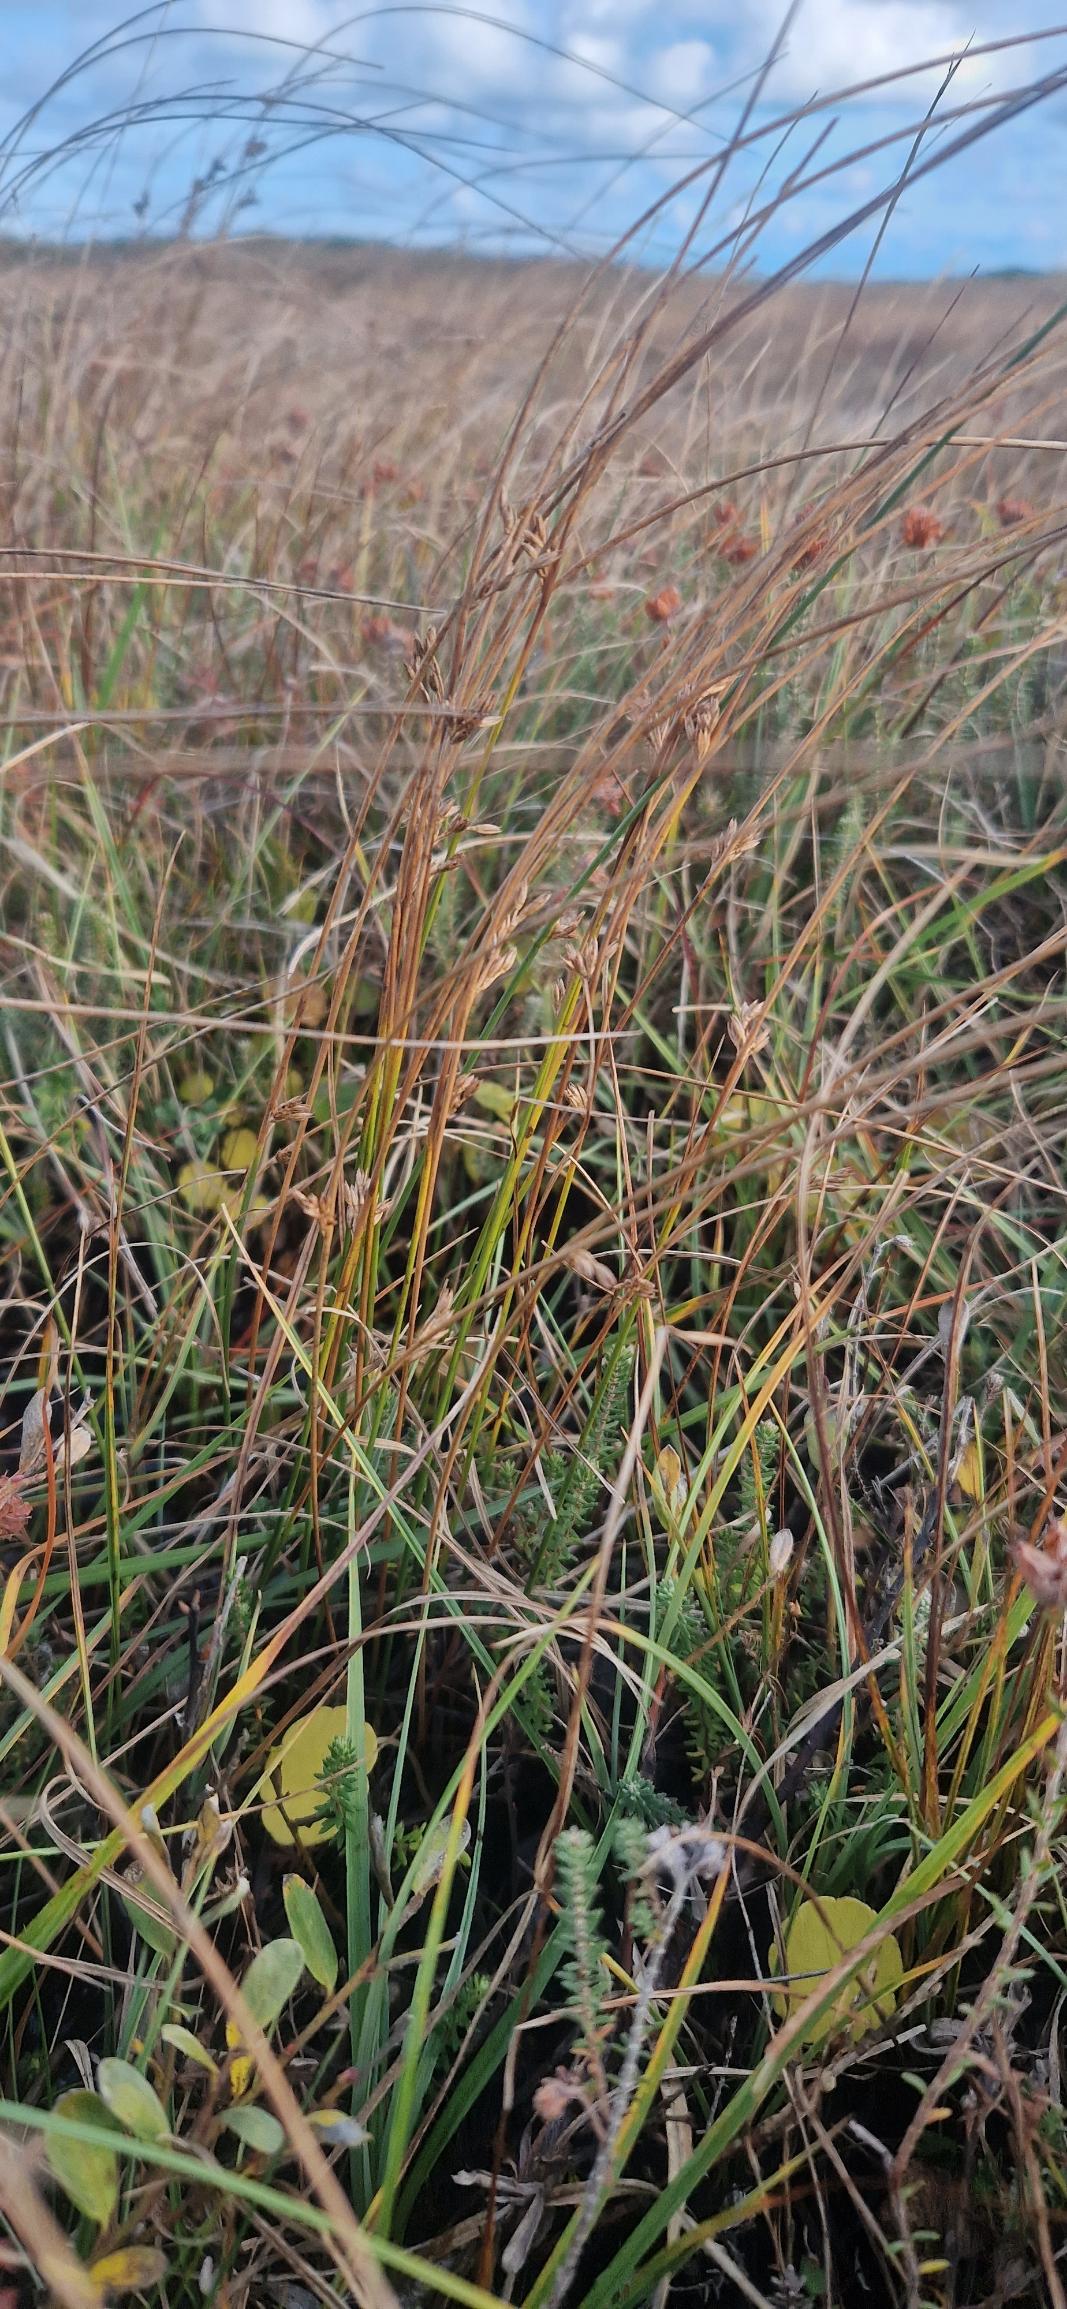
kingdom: Plantae
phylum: Tracheophyta
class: Liliopsida
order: Poales
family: Juncaceae
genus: Juncus
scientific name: Juncus filiformis
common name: Tråd-siv
